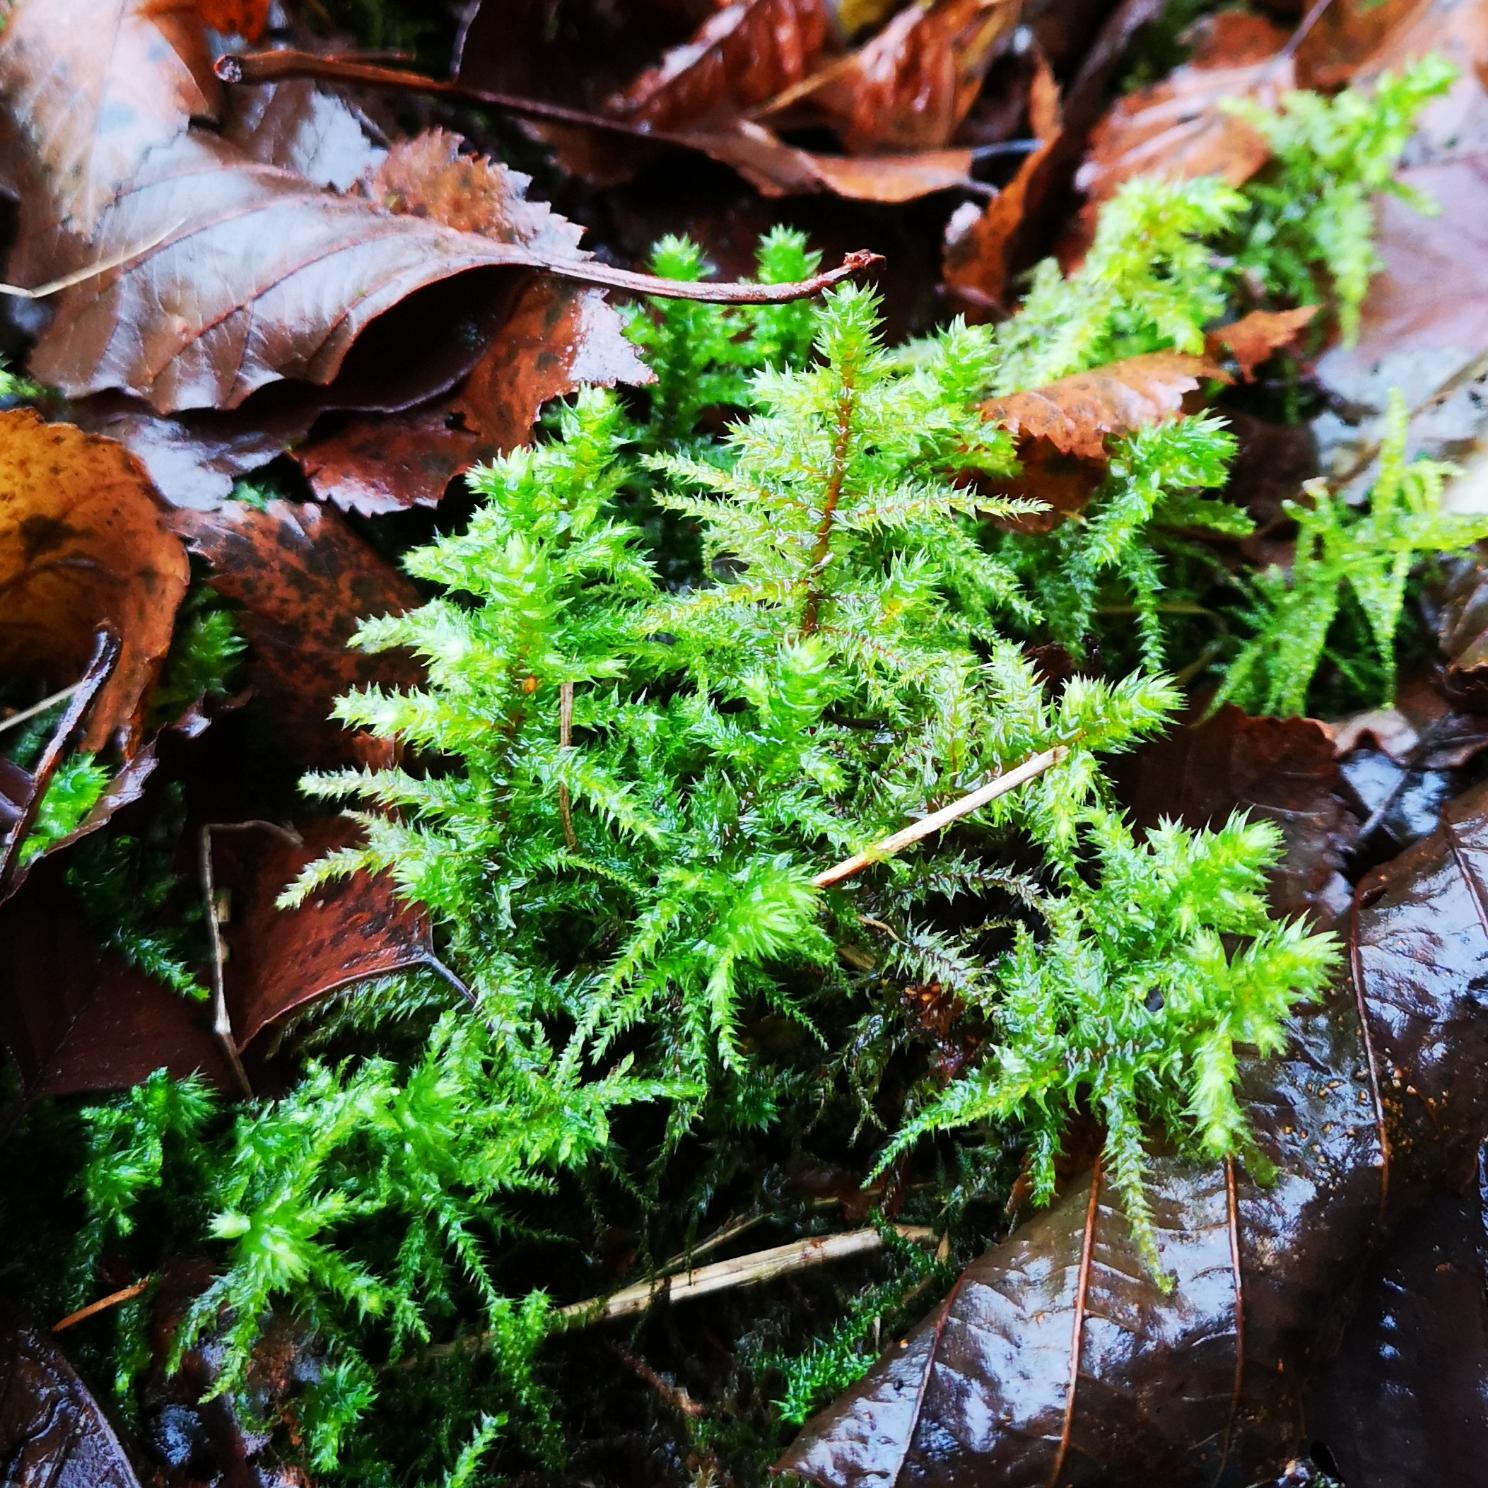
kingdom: Plantae
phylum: Bryophyta
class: Bryopsida
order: Hypnales
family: Hylocomiaceae
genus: Hylocomiadelphus
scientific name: Hylocomiadelphus triquetrus
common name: Stor kransemos
